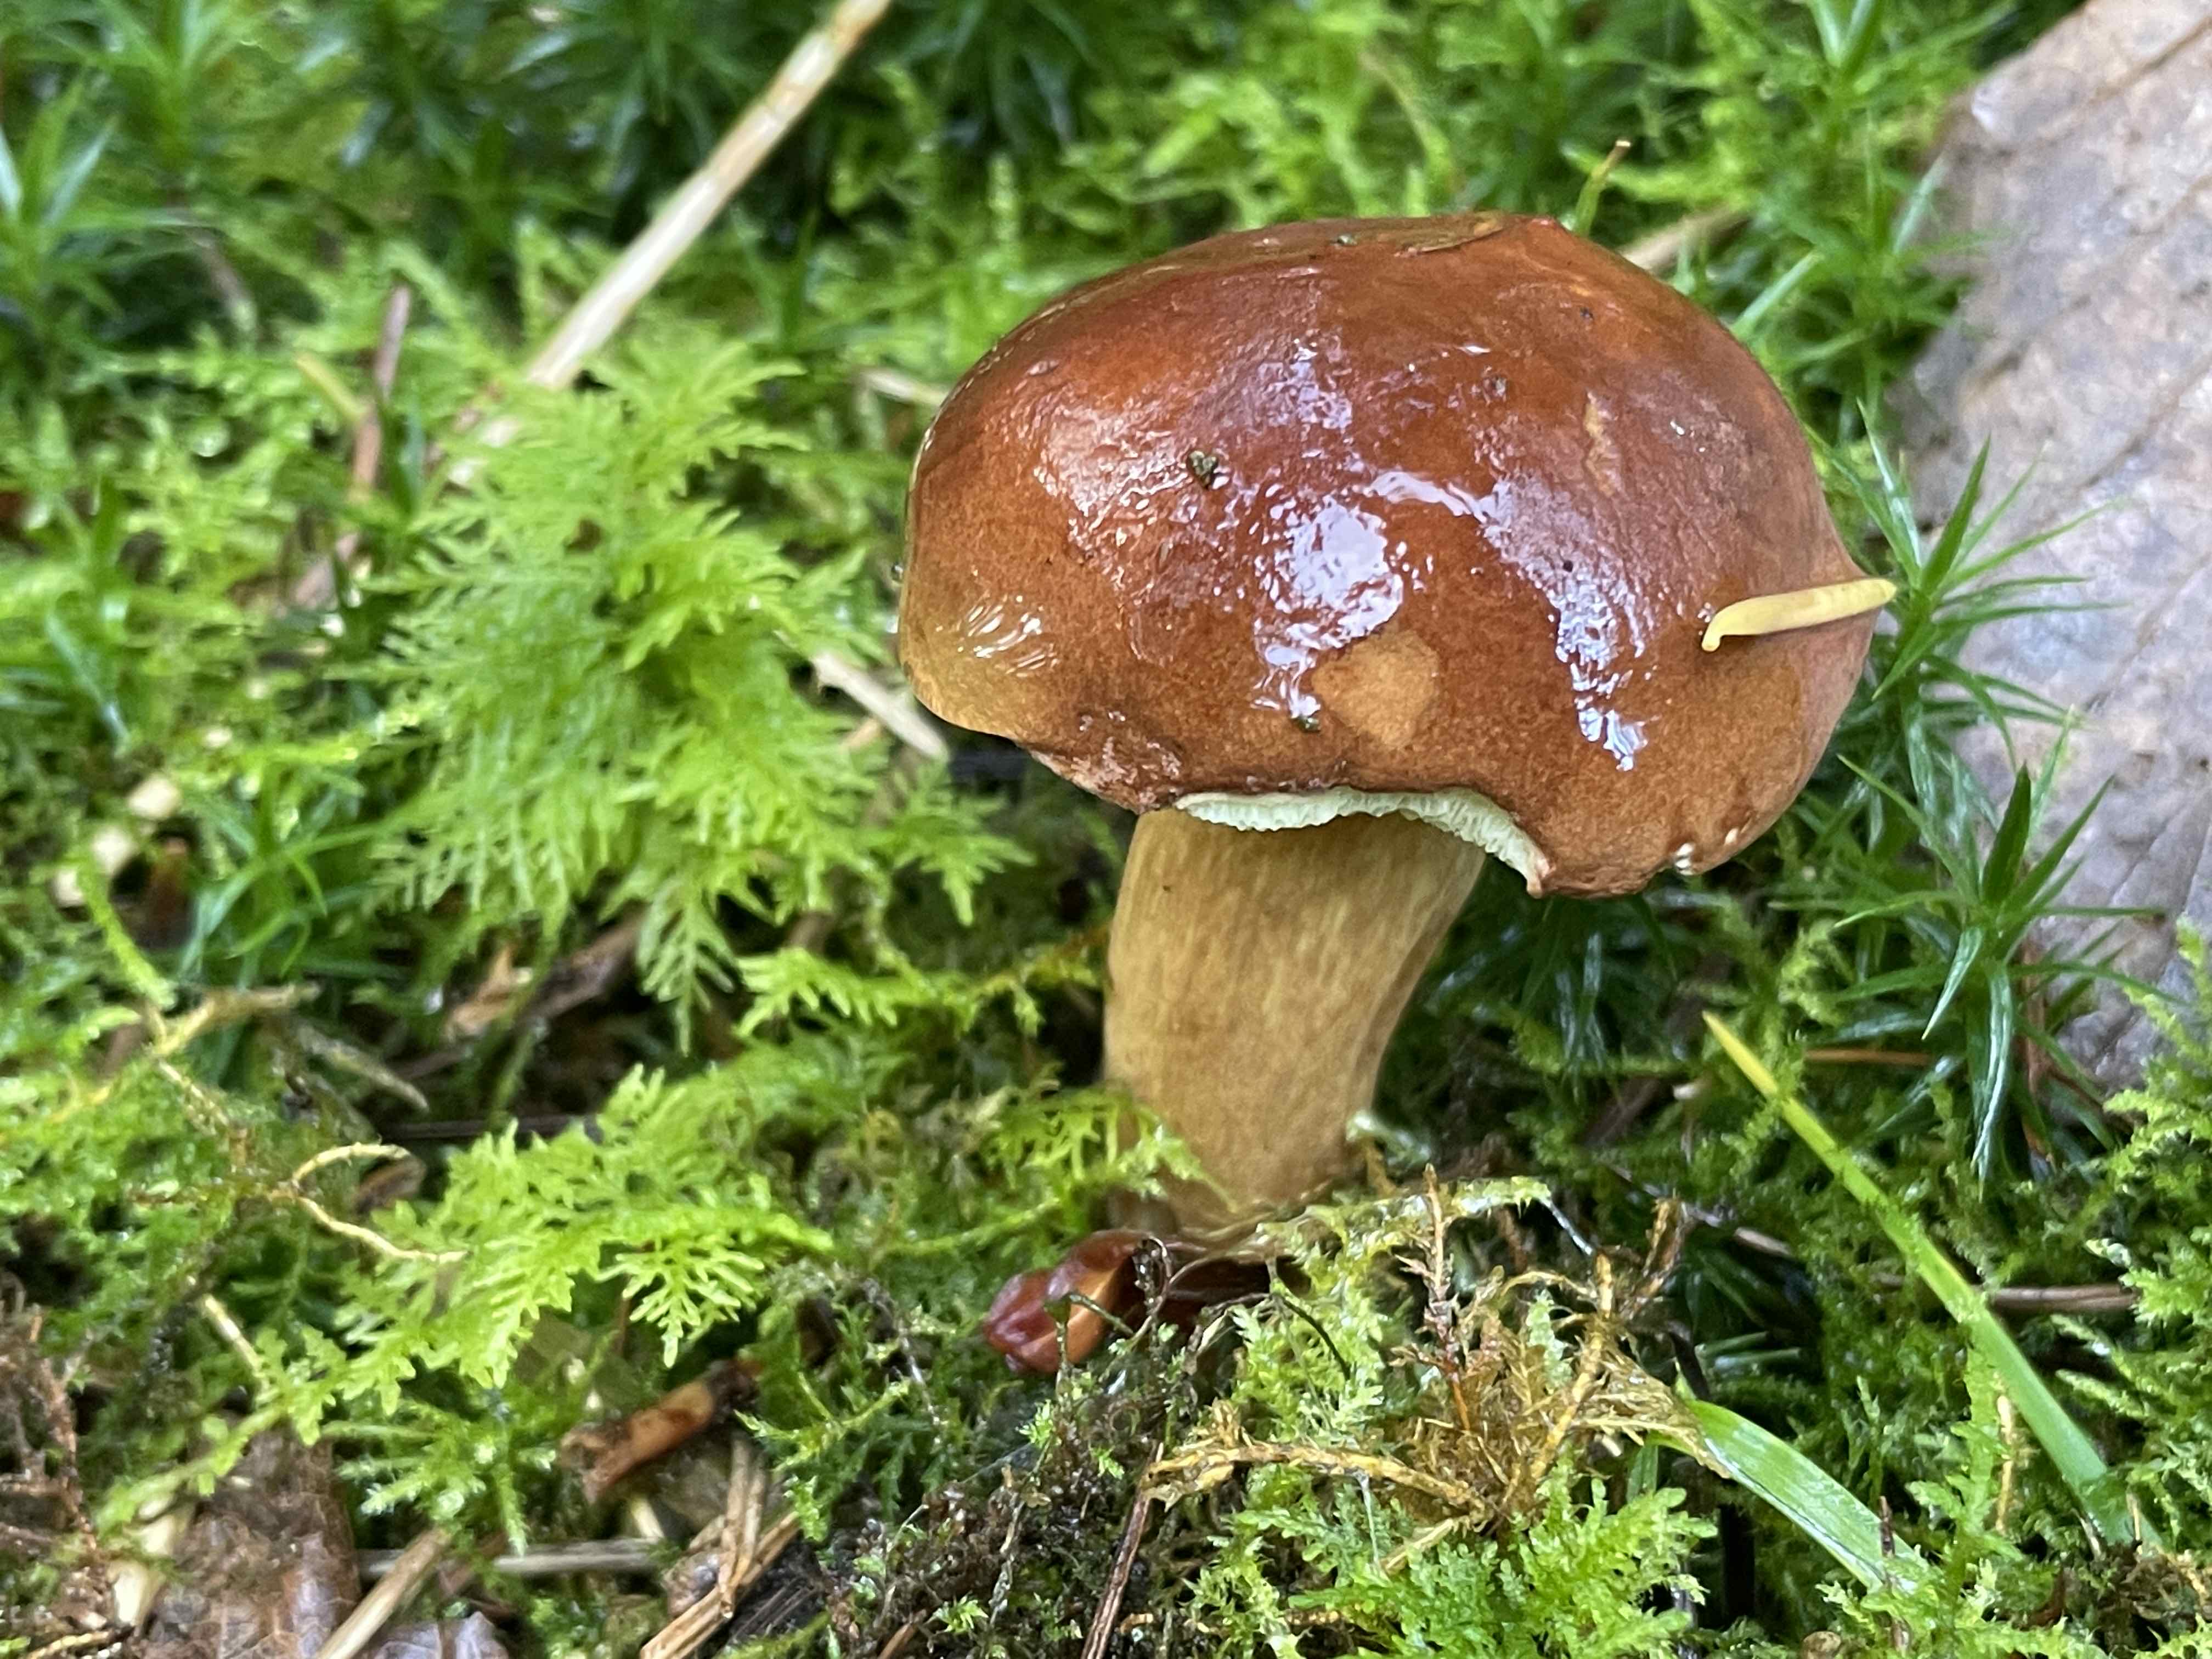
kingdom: Fungi
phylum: Basidiomycota
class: Agaricomycetes
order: Boletales
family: Boletaceae
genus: Imleria
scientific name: Imleria badia
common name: brunstokket rørhat
